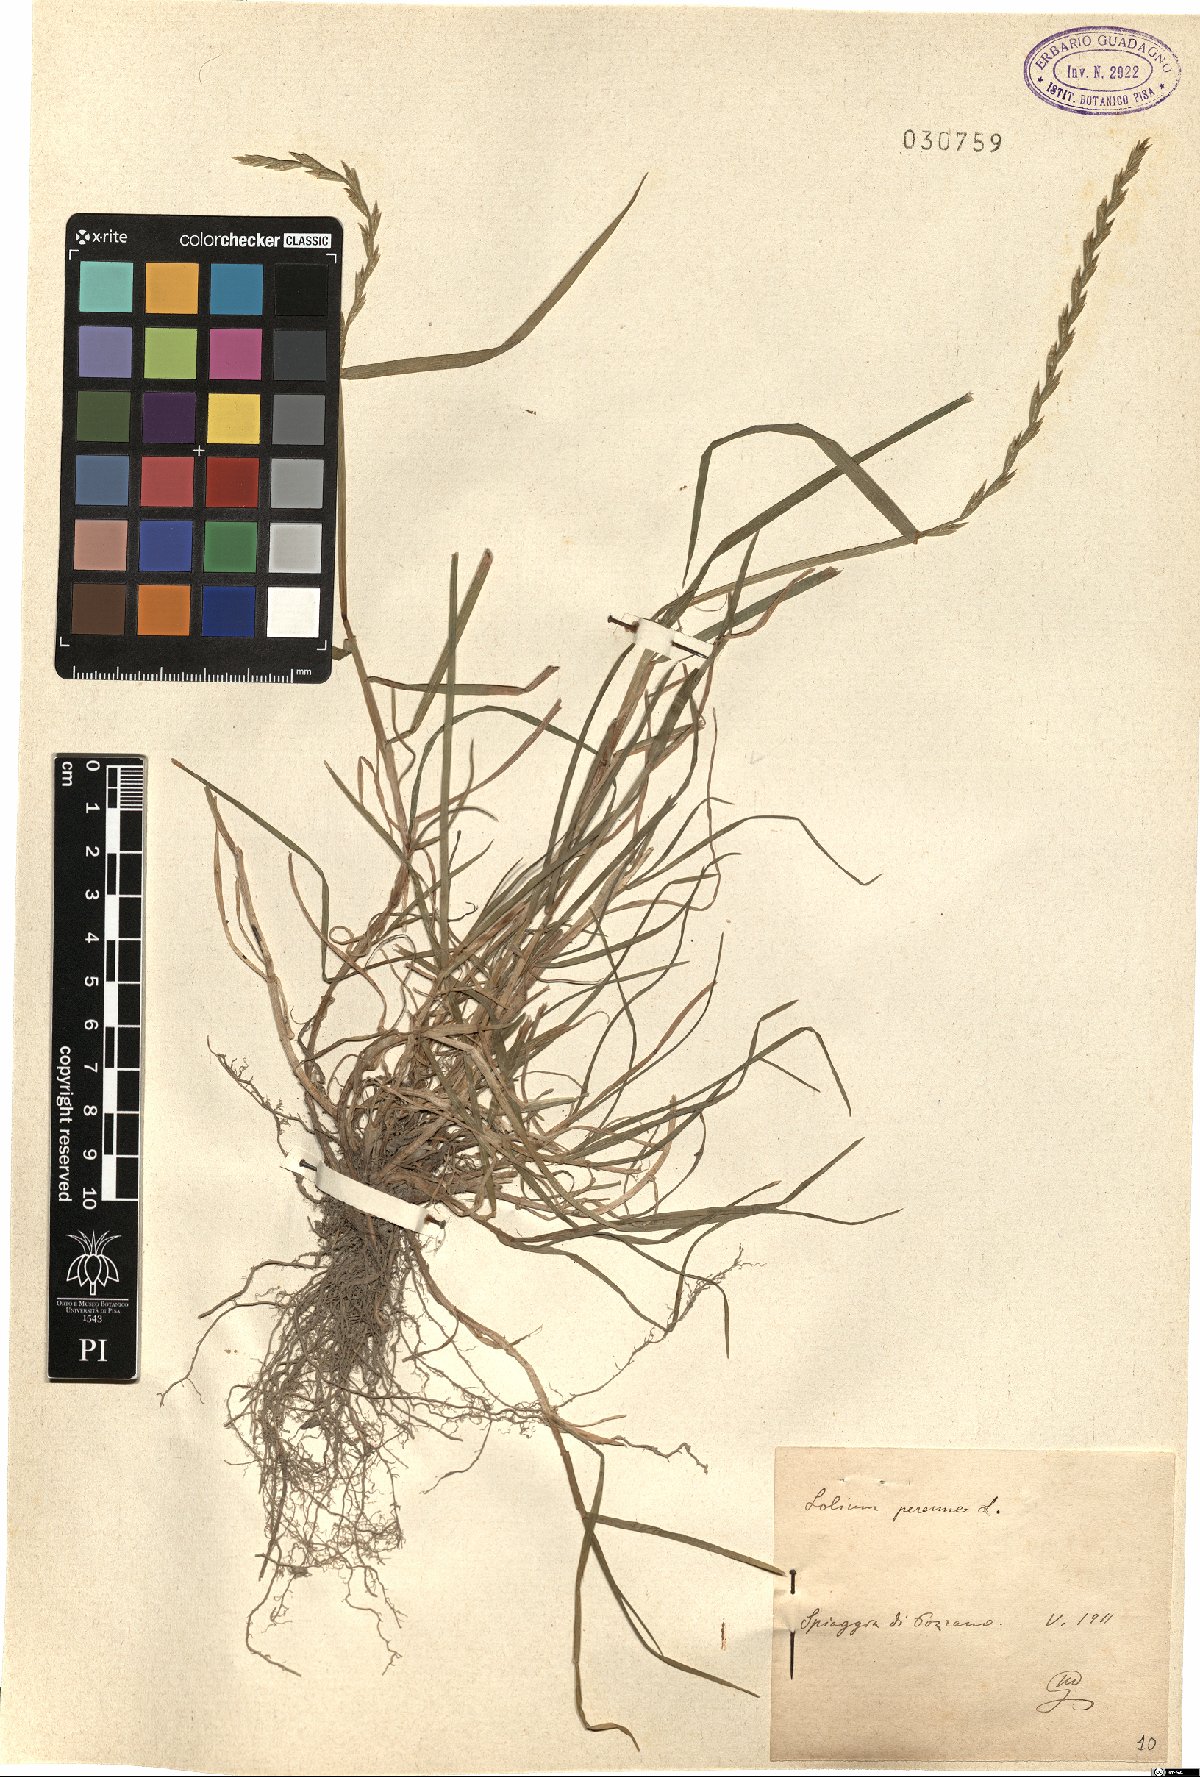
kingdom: Plantae
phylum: Tracheophyta
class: Liliopsida
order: Poales
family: Poaceae
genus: Lolium
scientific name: Lolium perenne
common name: Perennial ryegrass
